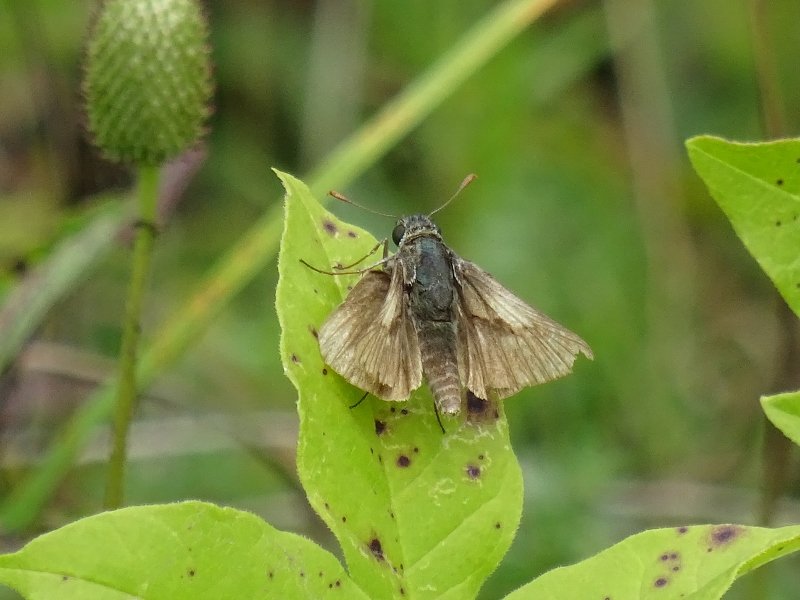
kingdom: Animalia
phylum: Arthropoda
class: Insecta
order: Lepidoptera
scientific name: Lepidoptera
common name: Butterflies
